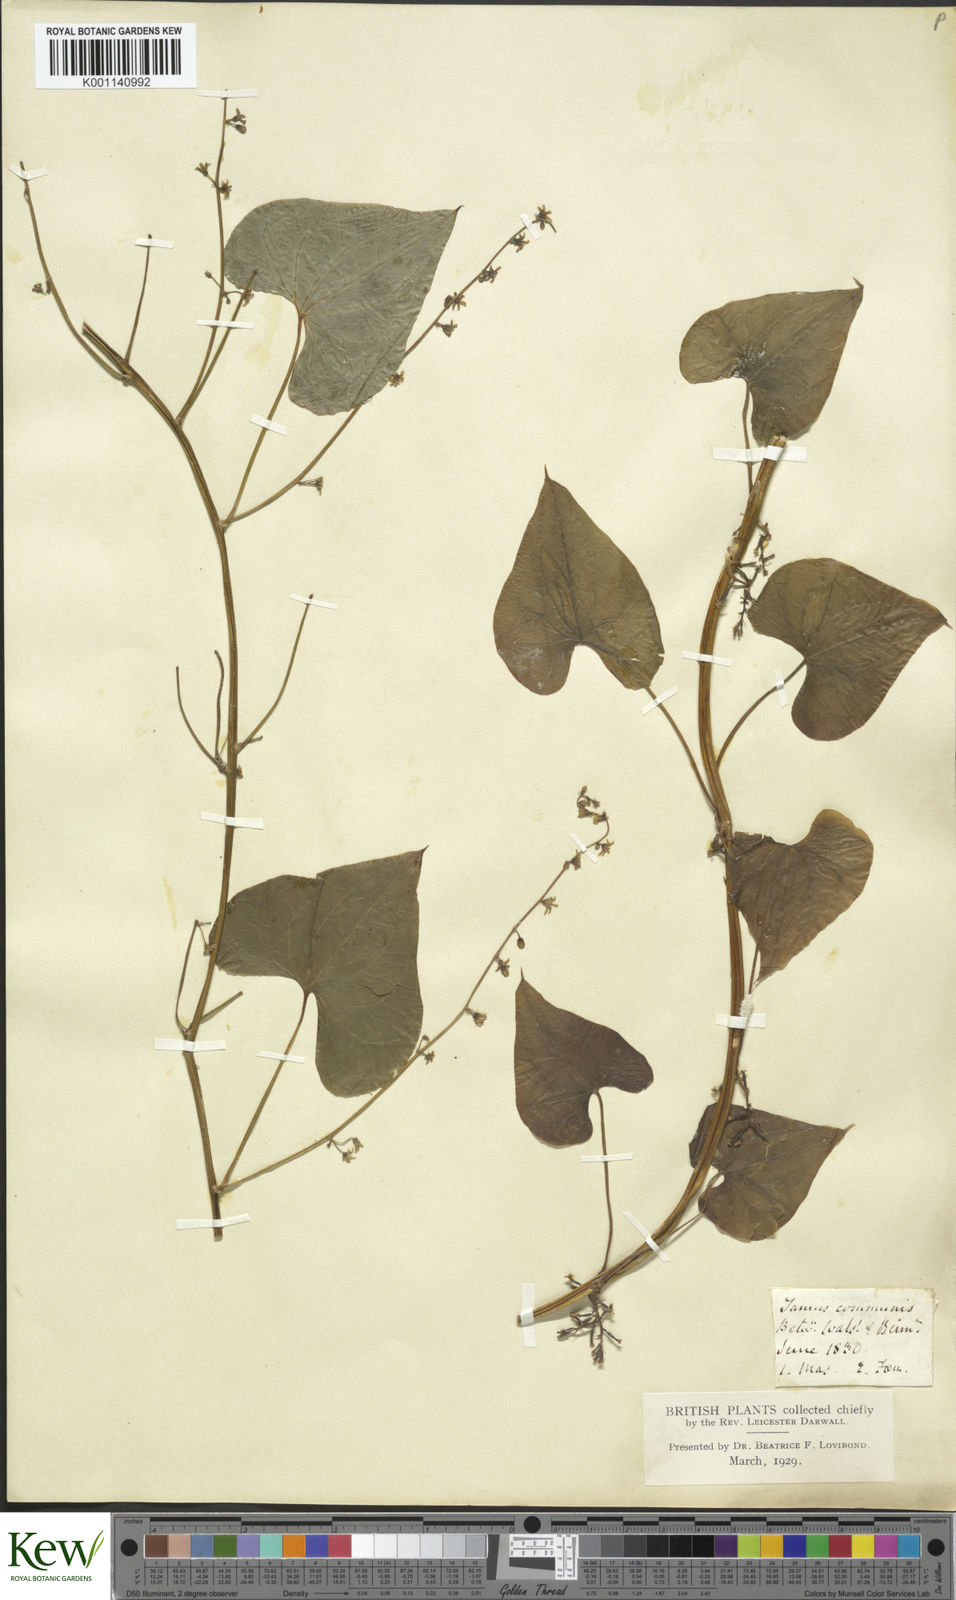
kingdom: Plantae
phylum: Tracheophyta
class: Liliopsida
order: Dioscoreales
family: Dioscoreaceae
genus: Dioscorea
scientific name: Dioscorea communis
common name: Black-bindweed
